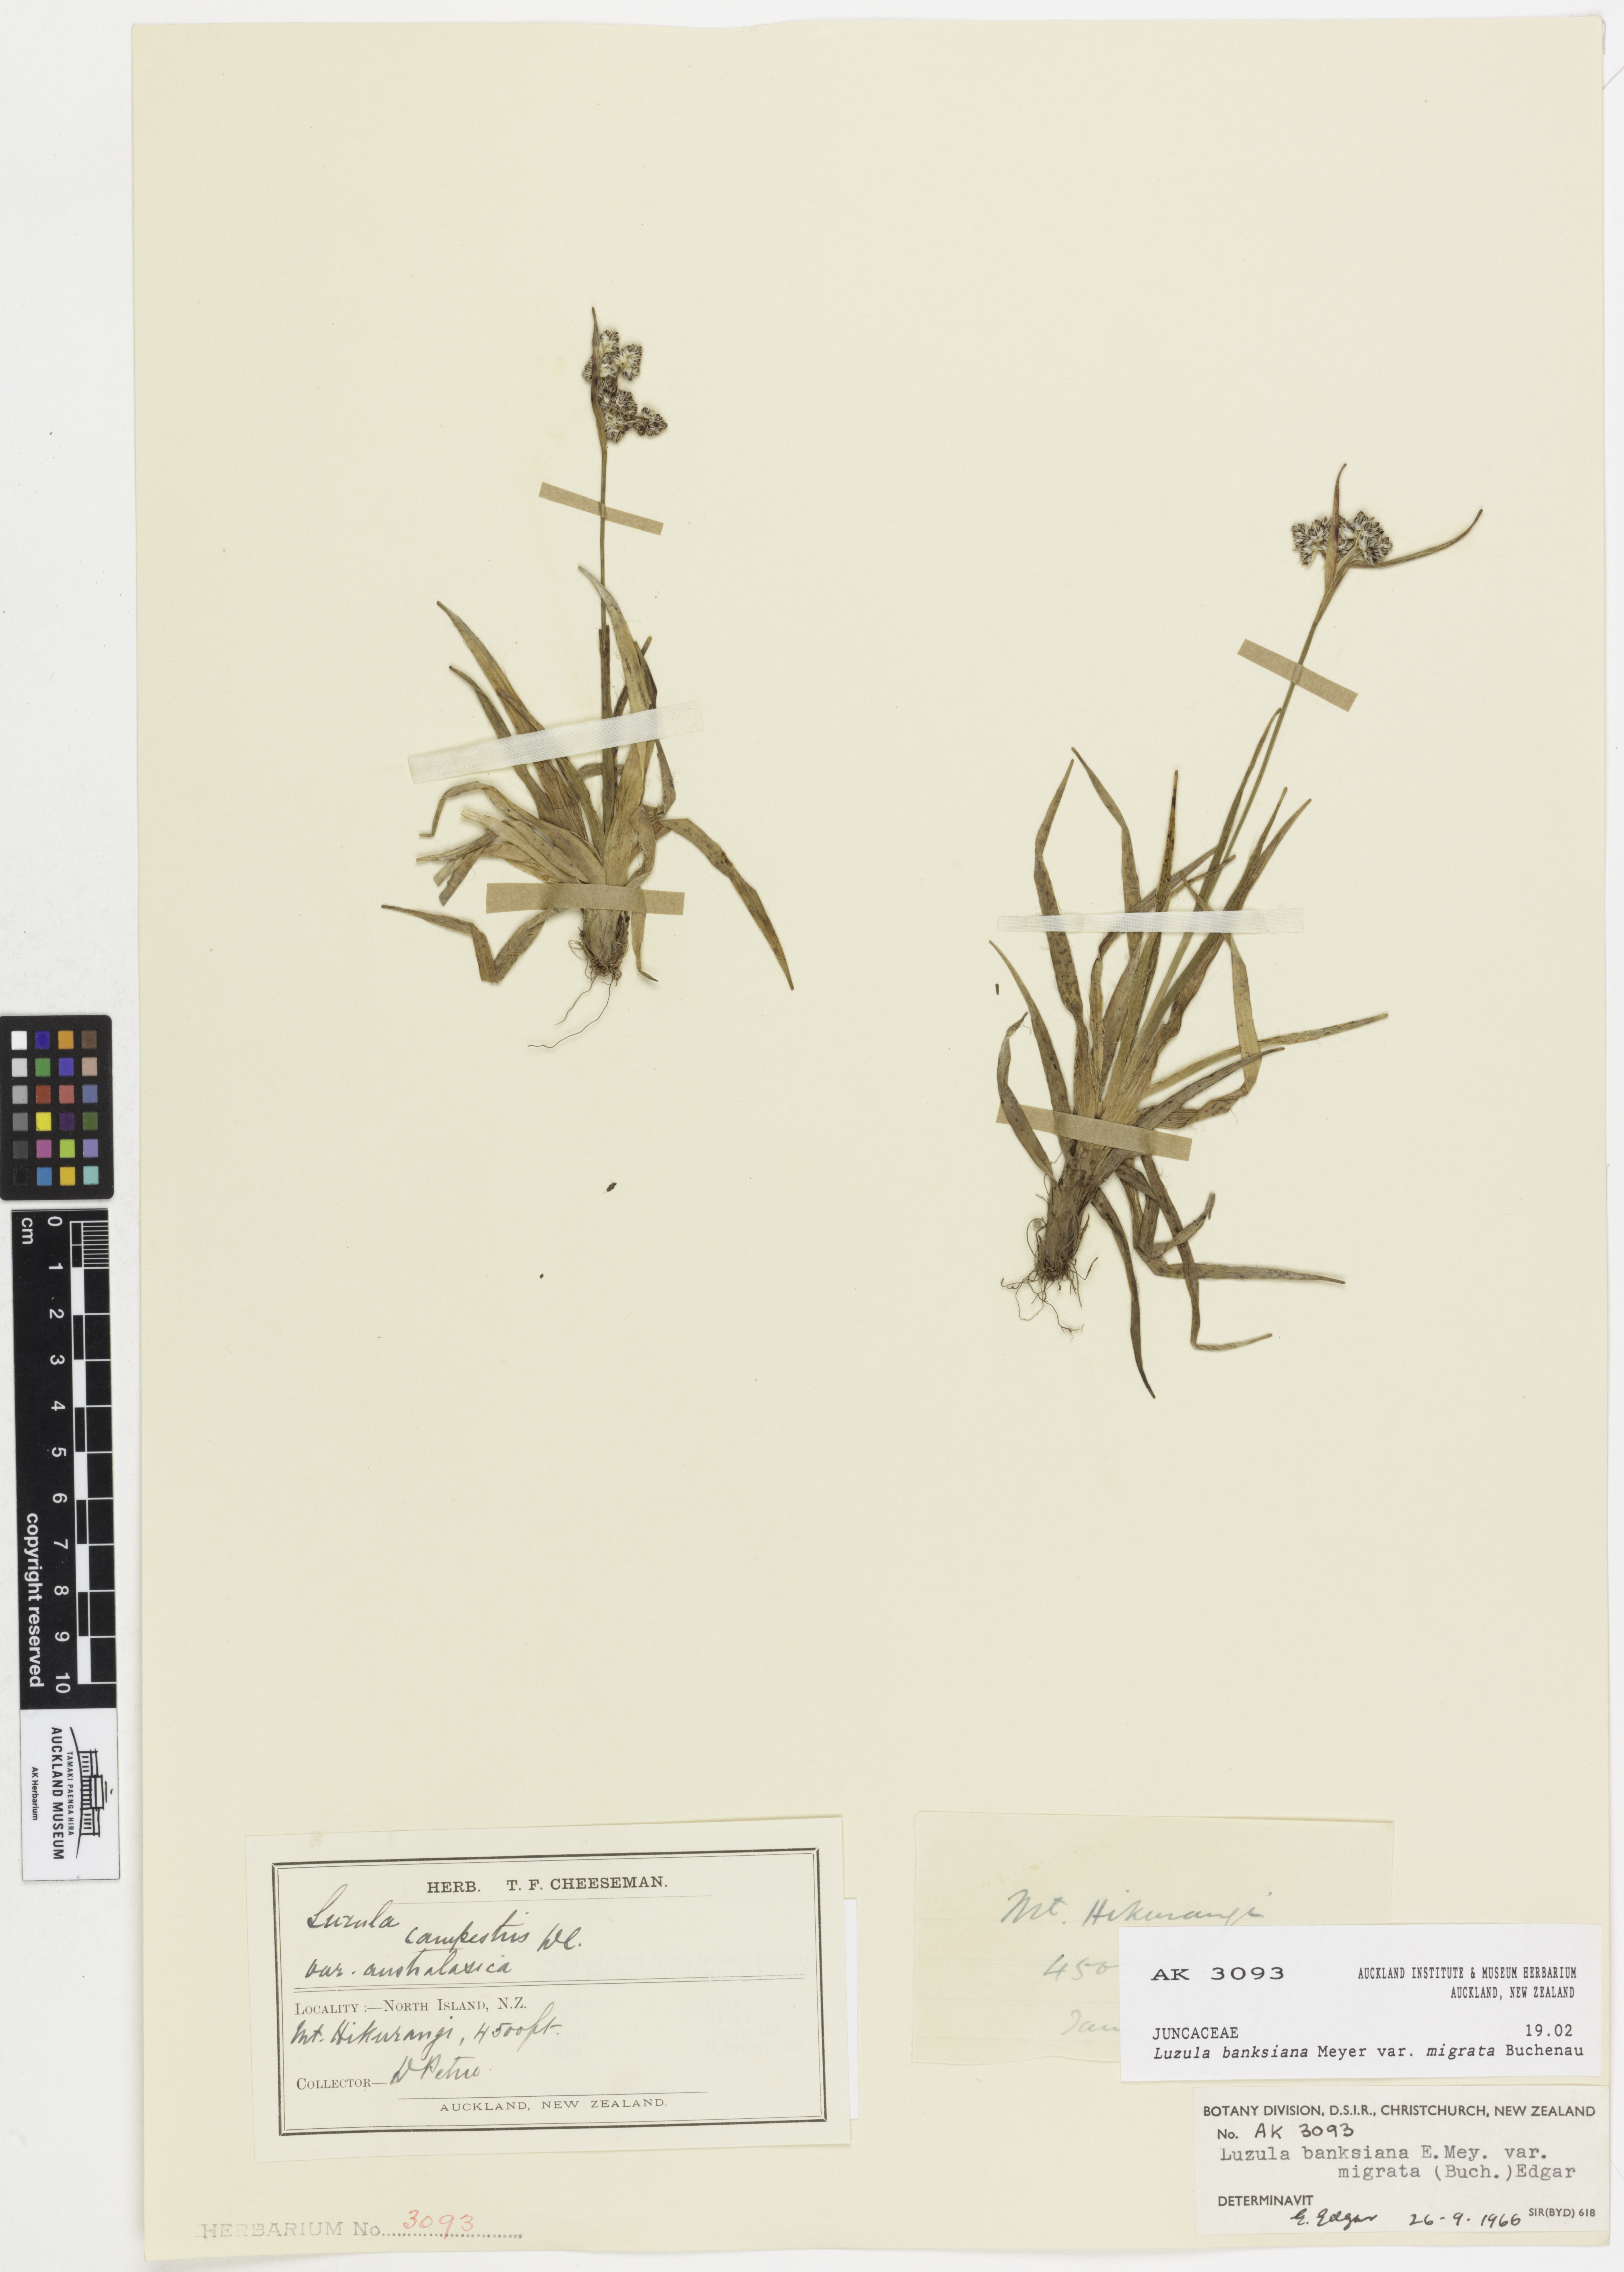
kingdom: Plantae
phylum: Tracheophyta
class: Liliopsida
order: Poales
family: Juncaceae
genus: Luzula
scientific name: Luzula banksiana
